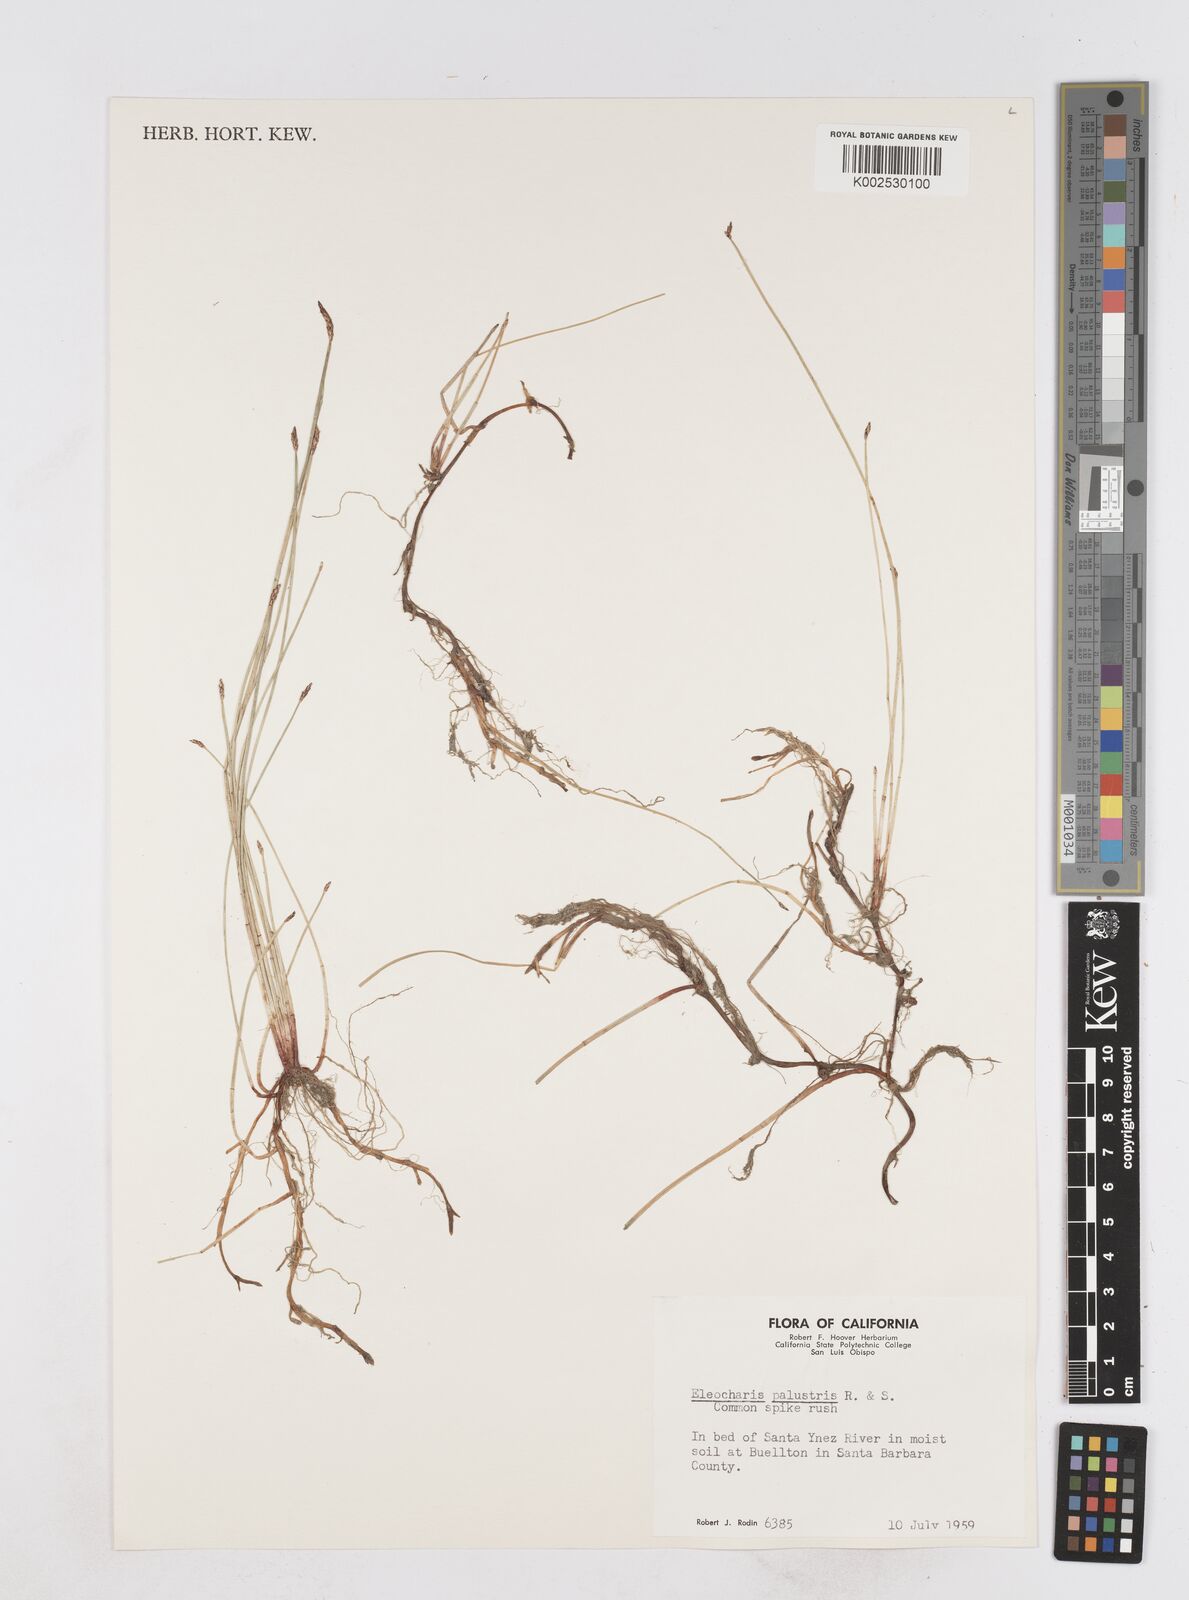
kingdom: Plantae
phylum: Tracheophyta
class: Liliopsida
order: Poales
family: Cyperaceae
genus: Eleocharis
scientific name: Eleocharis palustris
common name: Common spike-rush
